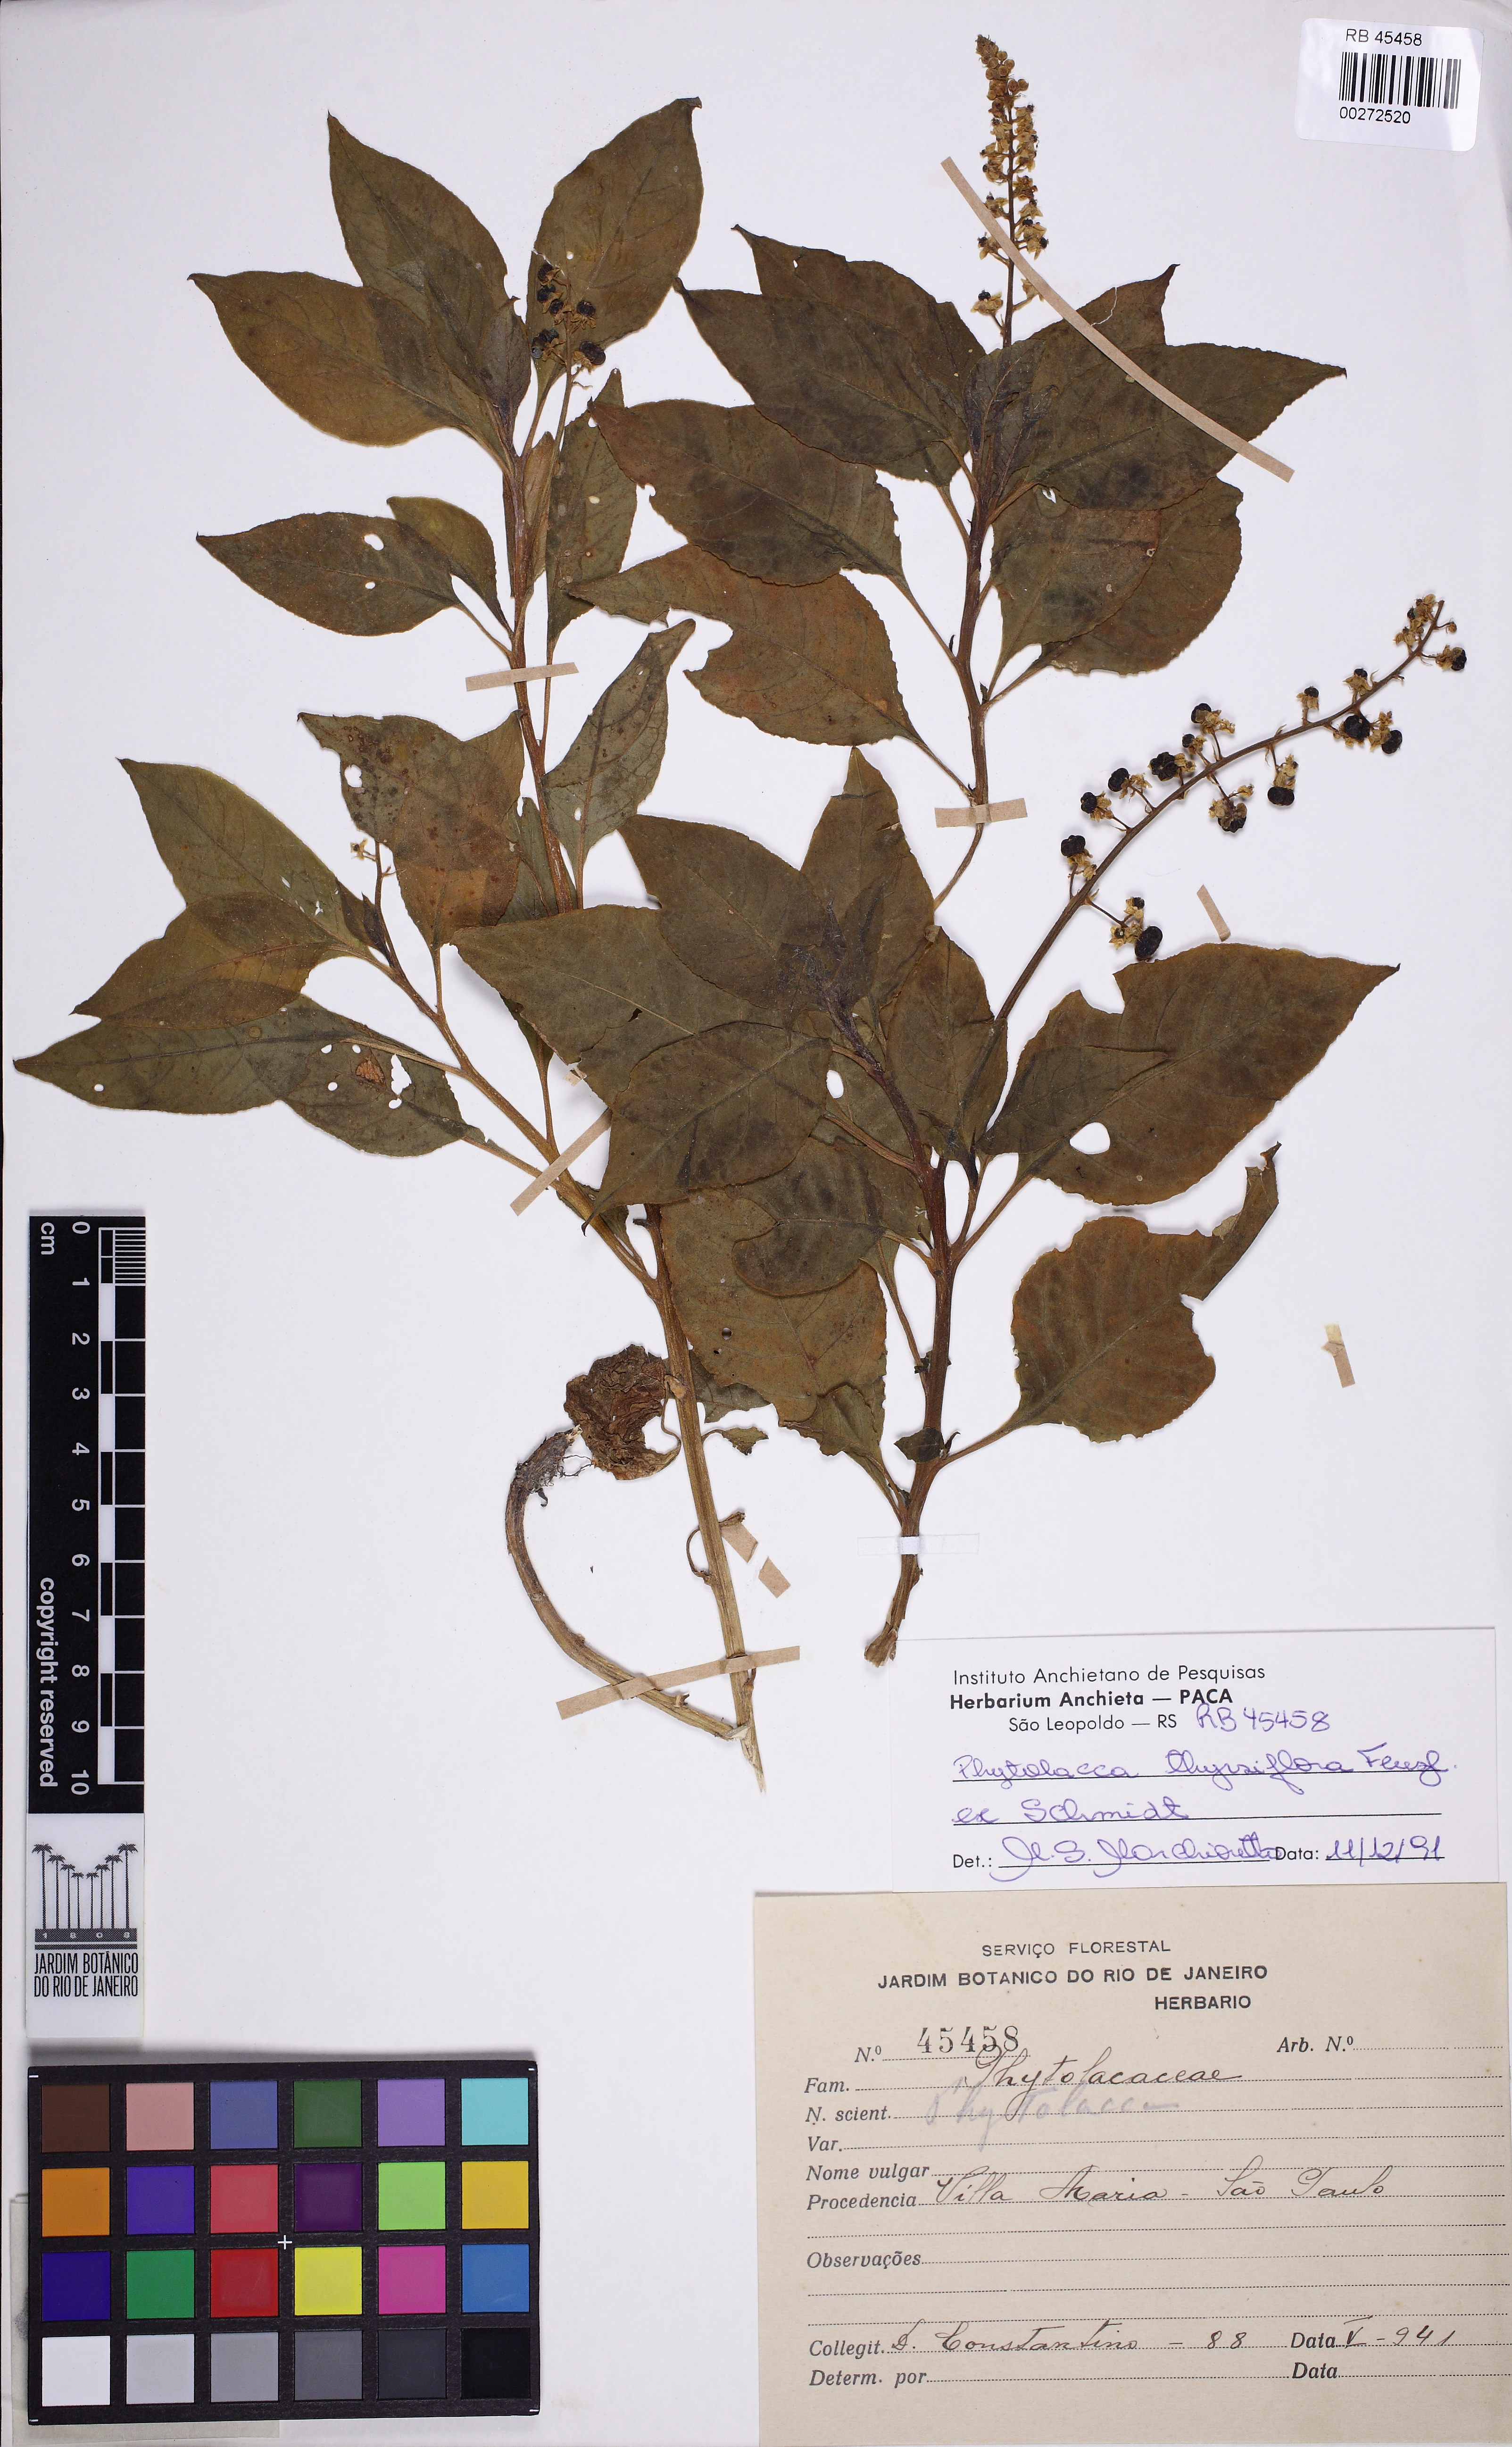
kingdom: Plantae
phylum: Tracheophyta
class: Magnoliopsida
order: Caryophyllales
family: Phytolaccaceae
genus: Phytolacca
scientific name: Phytolacca thyrsiflora
